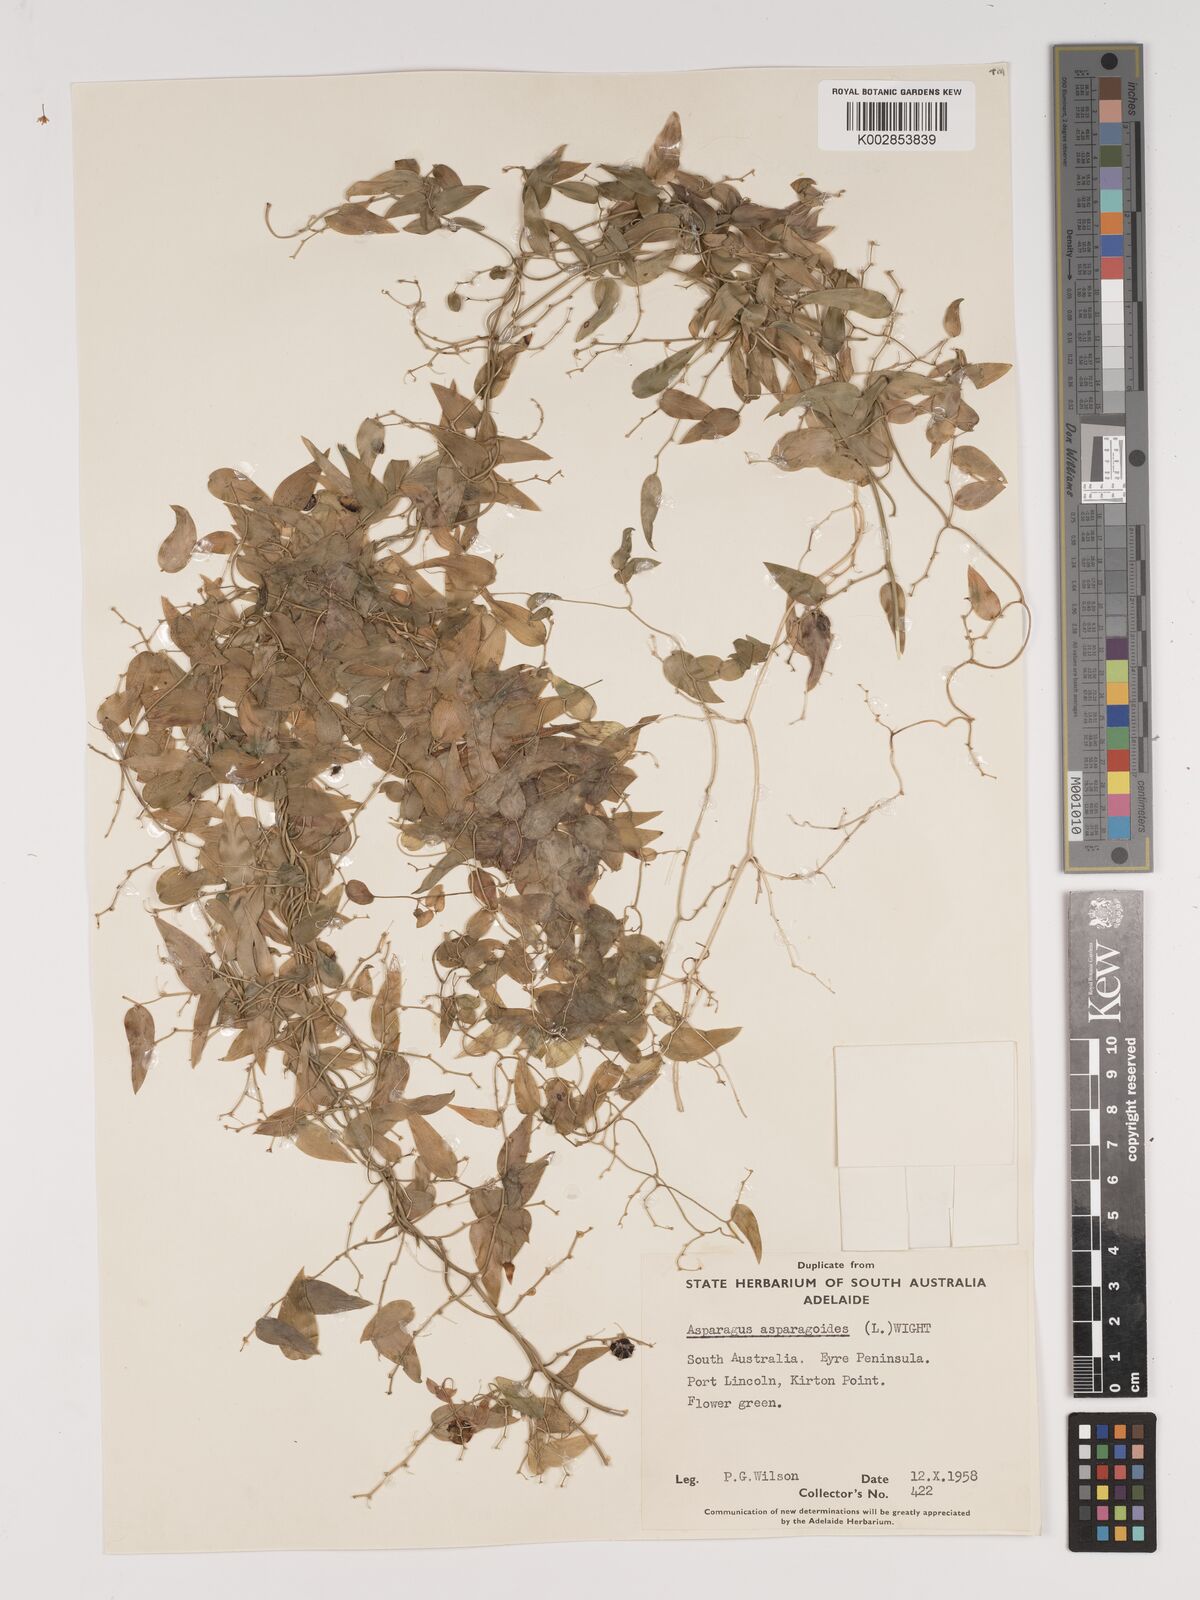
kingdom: Plantae
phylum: Tracheophyta
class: Liliopsida
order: Asparagales
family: Asparagaceae
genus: Asparagus
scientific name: Asparagus asparagoides
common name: African asparagus fern
